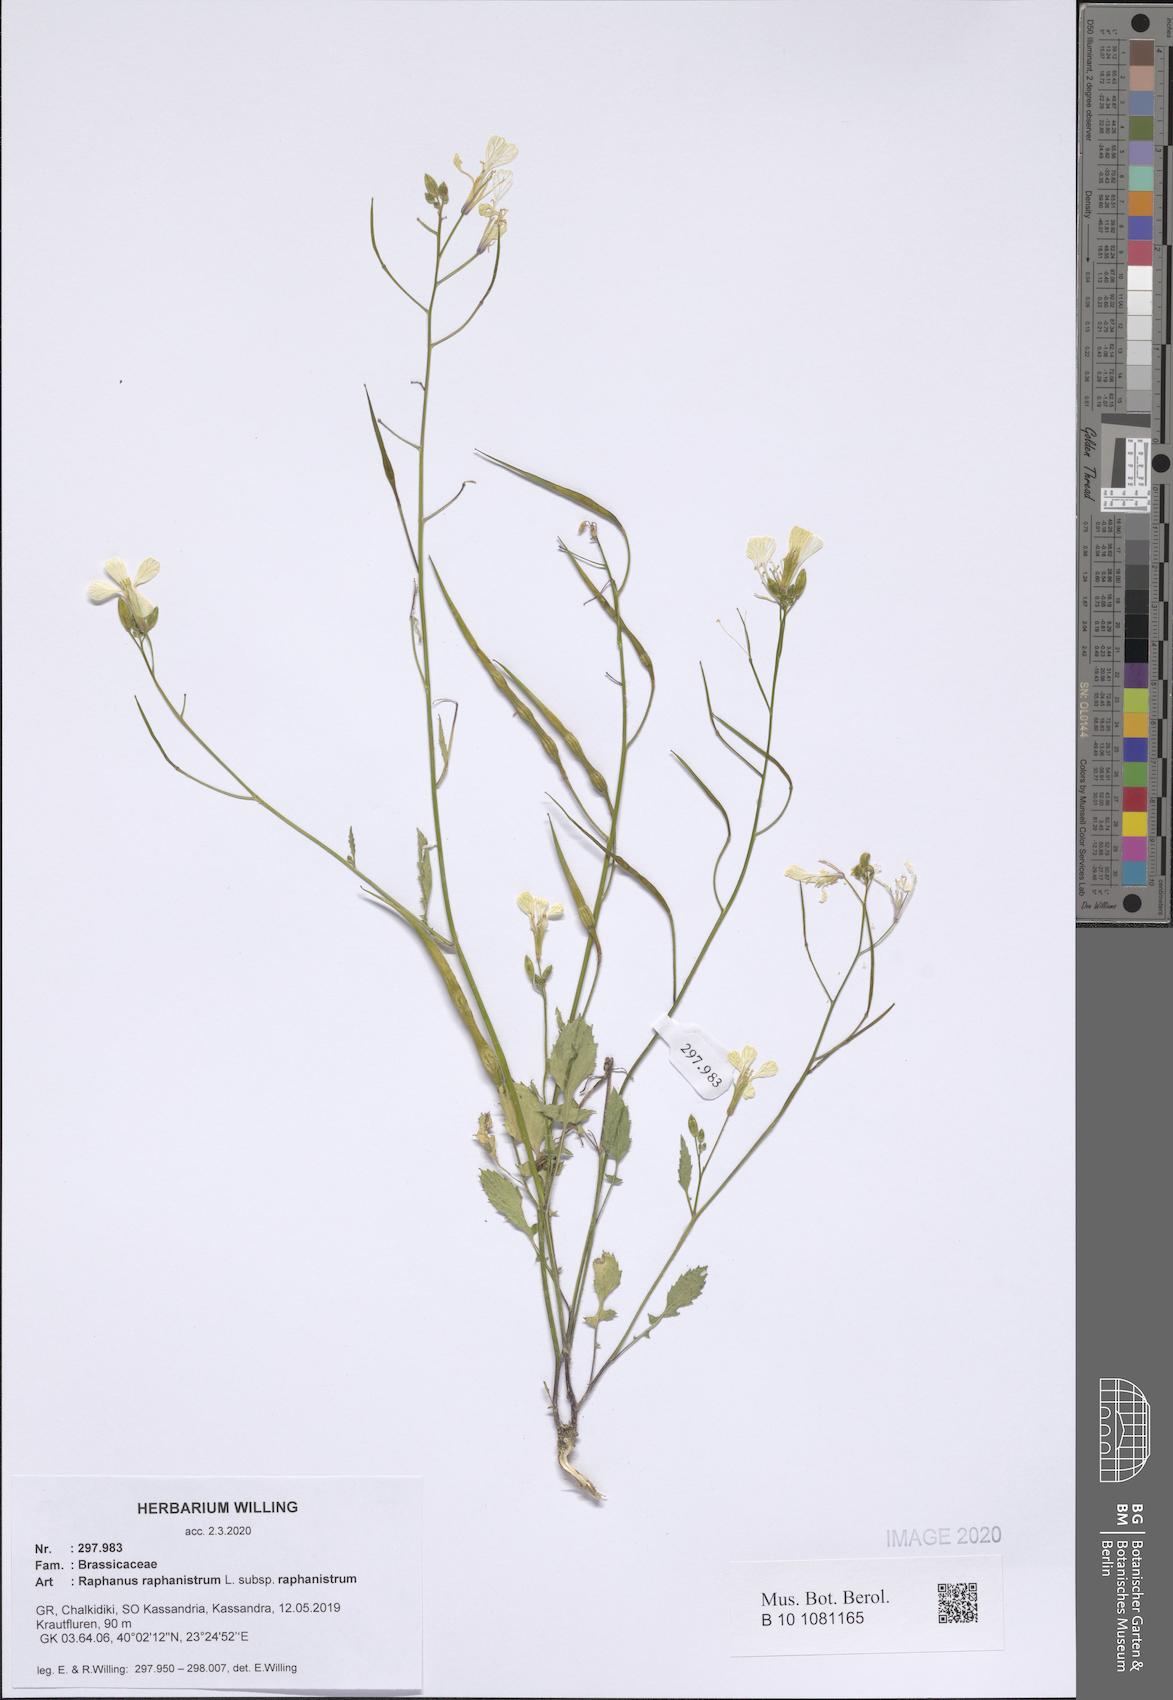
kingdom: Plantae
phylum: Tracheophyta
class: Magnoliopsida
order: Brassicales
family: Brassicaceae
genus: Raphanus
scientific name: Raphanus raphanistrum
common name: Wild radish
